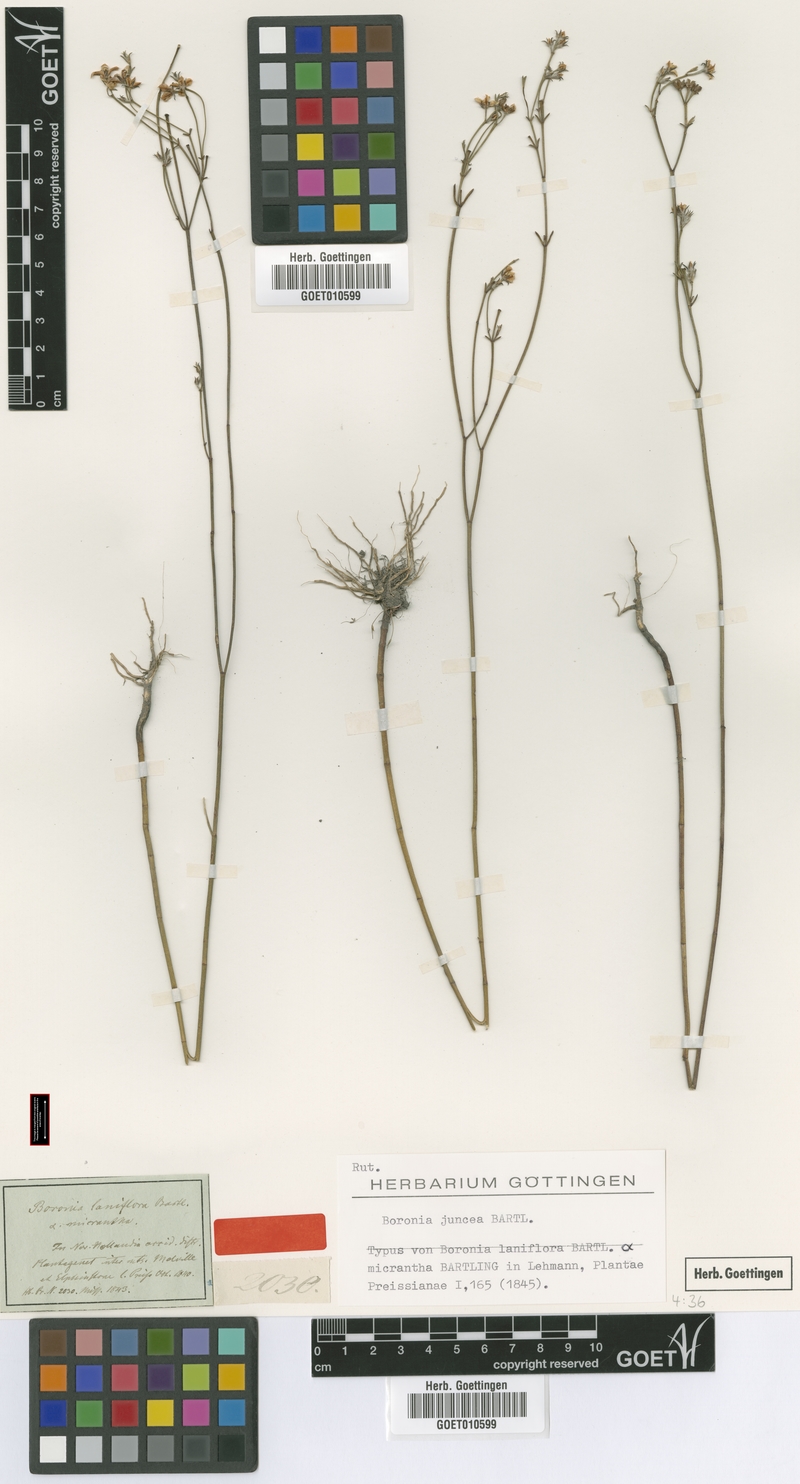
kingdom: Plantae
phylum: Tracheophyta
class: Magnoliopsida
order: Sapindales
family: Rutaceae
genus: Boronia
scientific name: Boronia juncea
